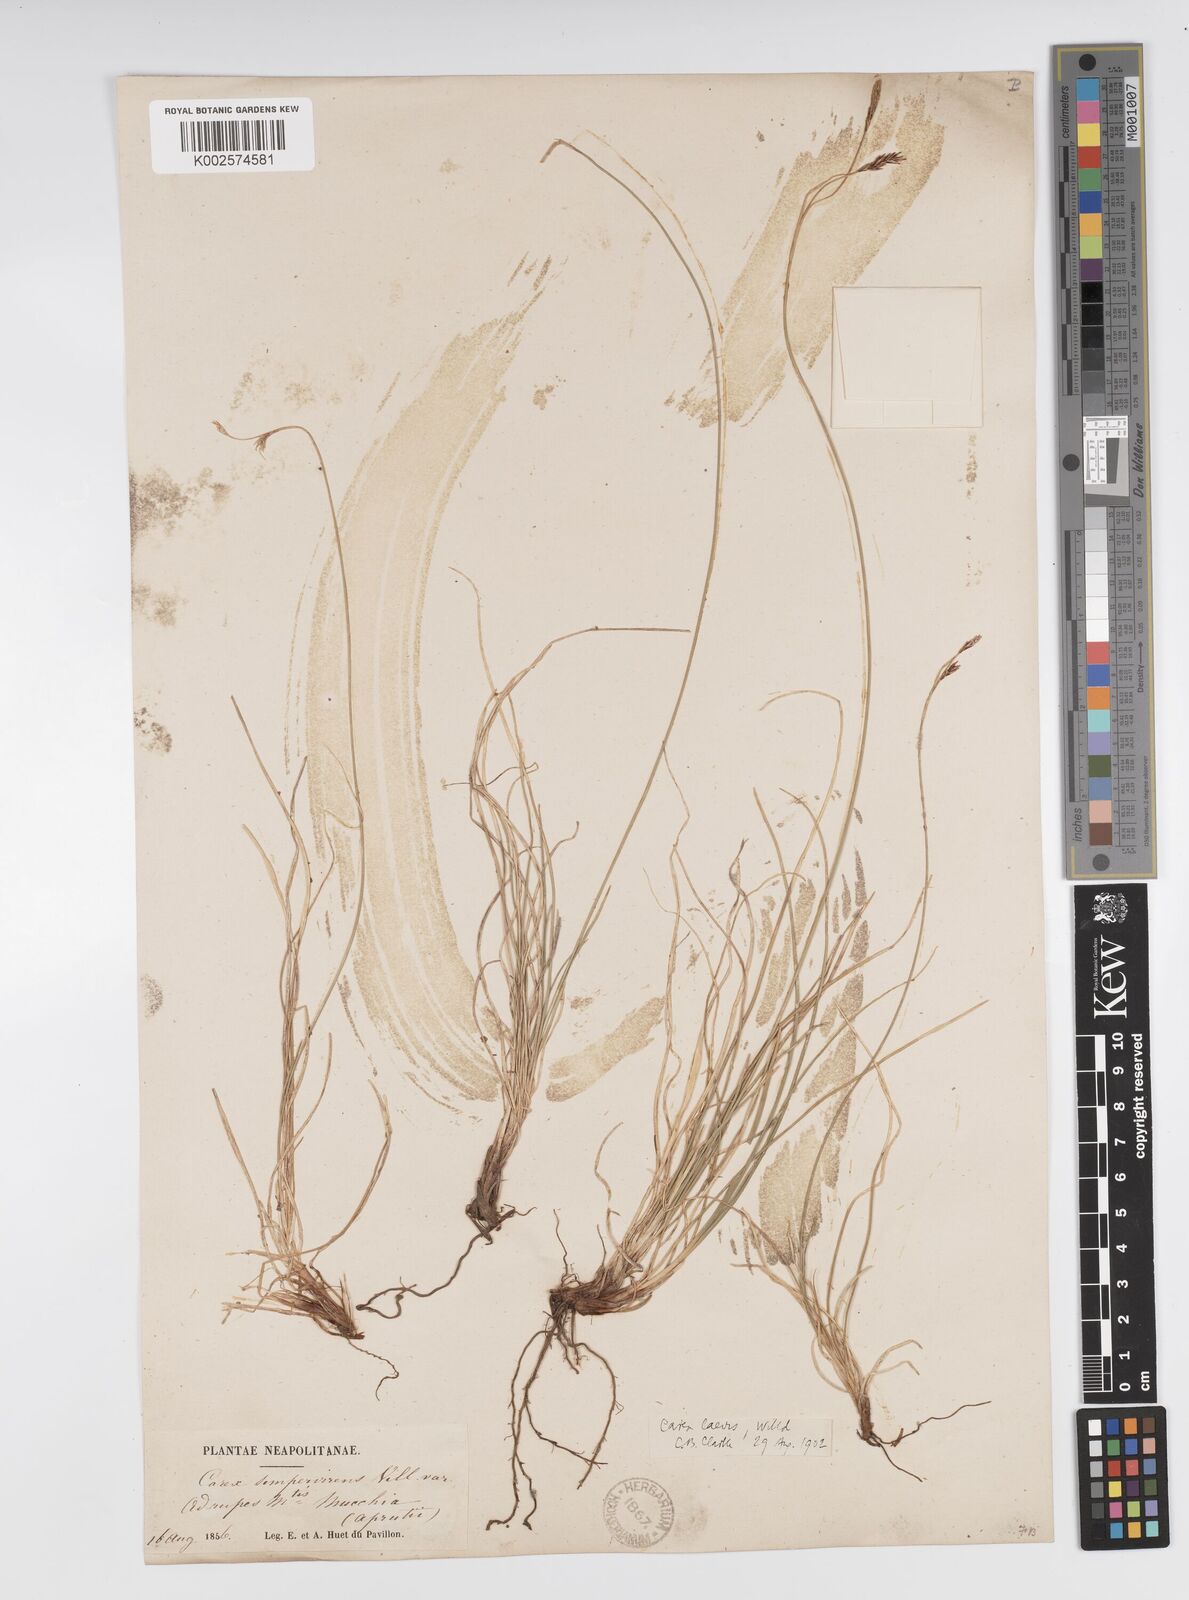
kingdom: Plantae
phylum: Tracheophyta
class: Liliopsida
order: Poales
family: Cyperaceae
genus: Carex
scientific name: Carex kitaibeliana
